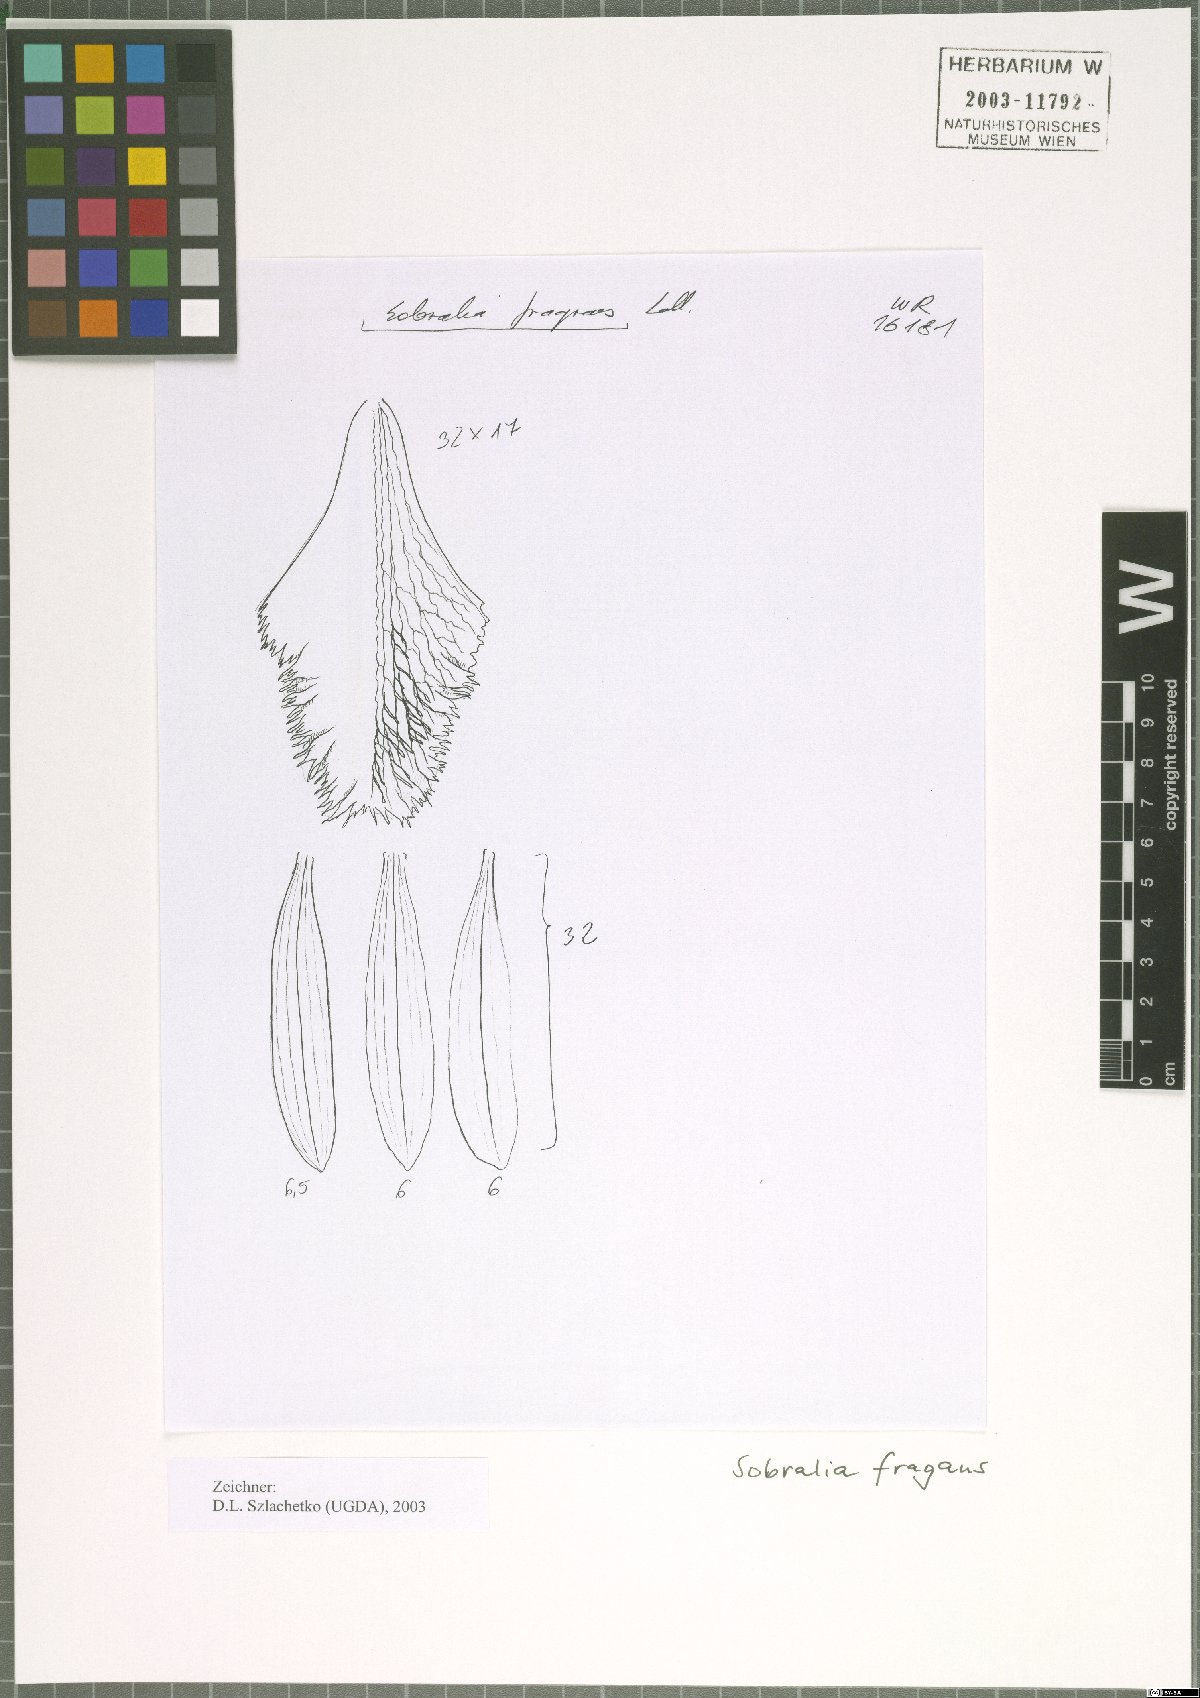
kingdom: Plantae
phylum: Tracheophyta
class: Liliopsida
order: Asparagales
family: Orchidaceae
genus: Sobralia
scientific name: Sobralia fragrans
